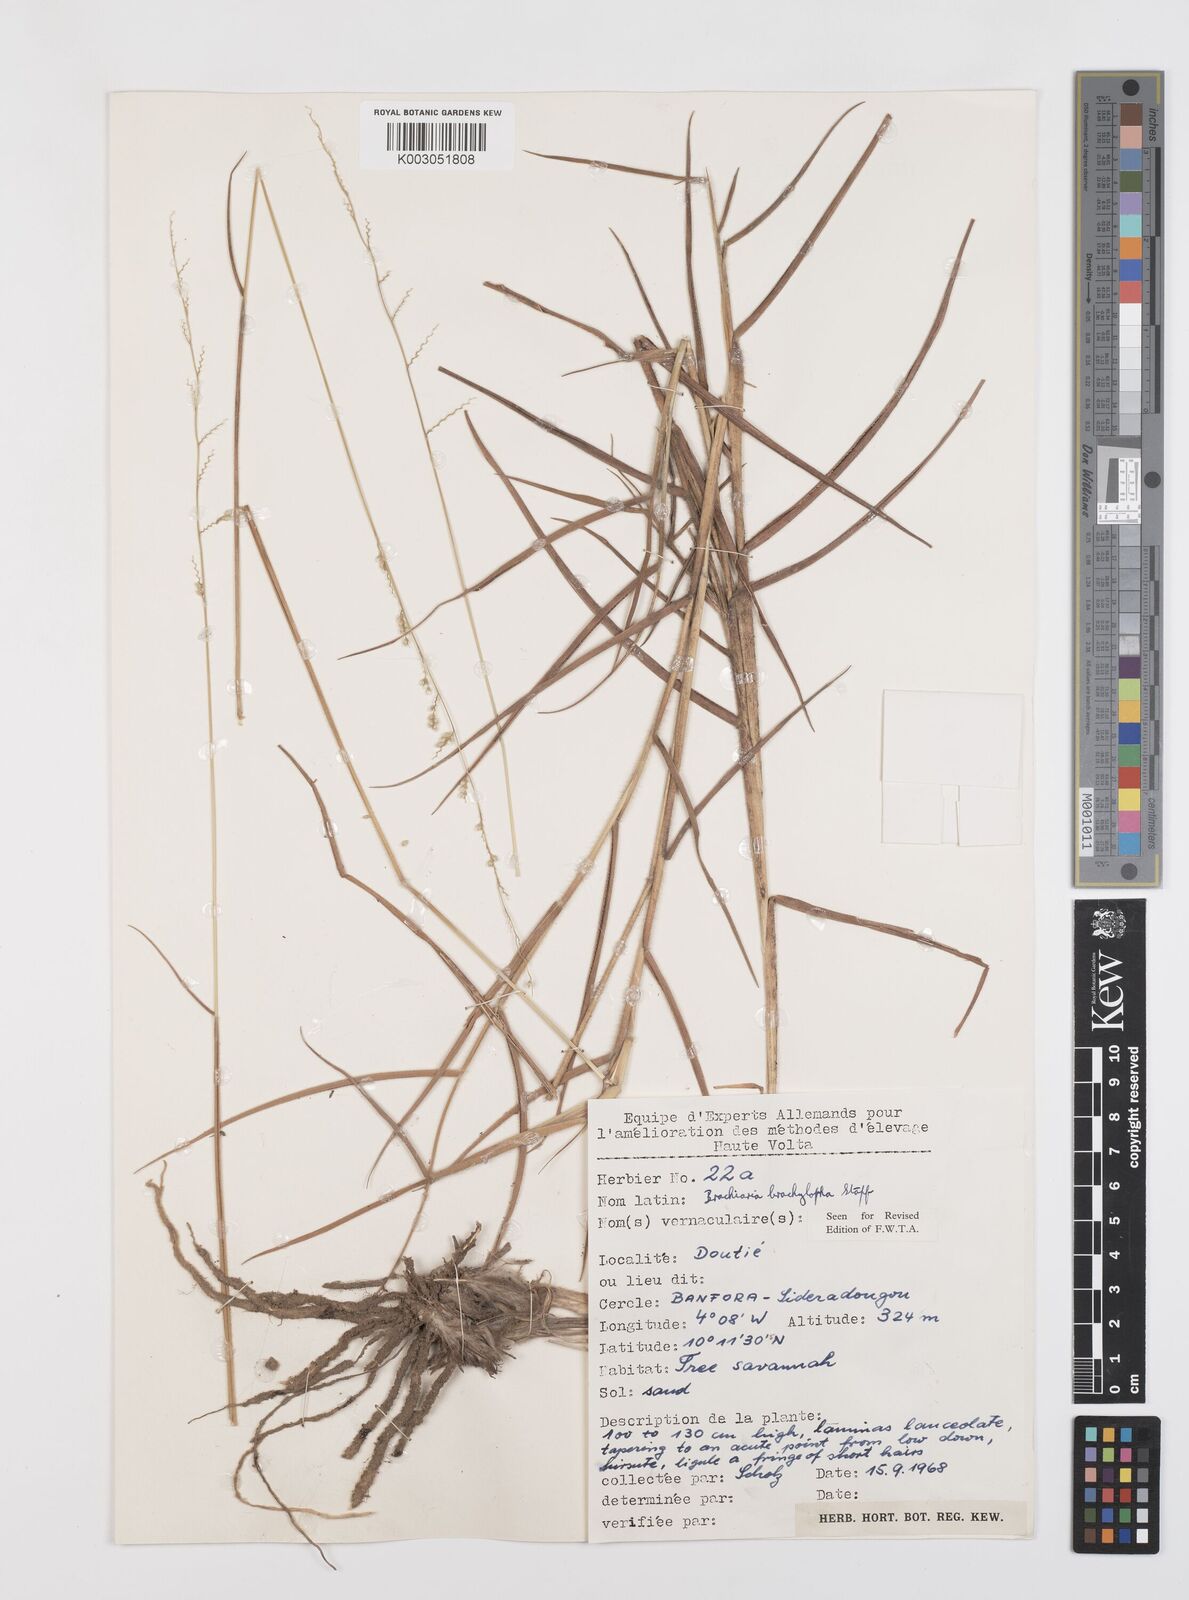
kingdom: Plantae
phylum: Tracheophyta
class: Liliopsida
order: Poales
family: Poaceae
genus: Urochloa
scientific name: Urochloa serrata
